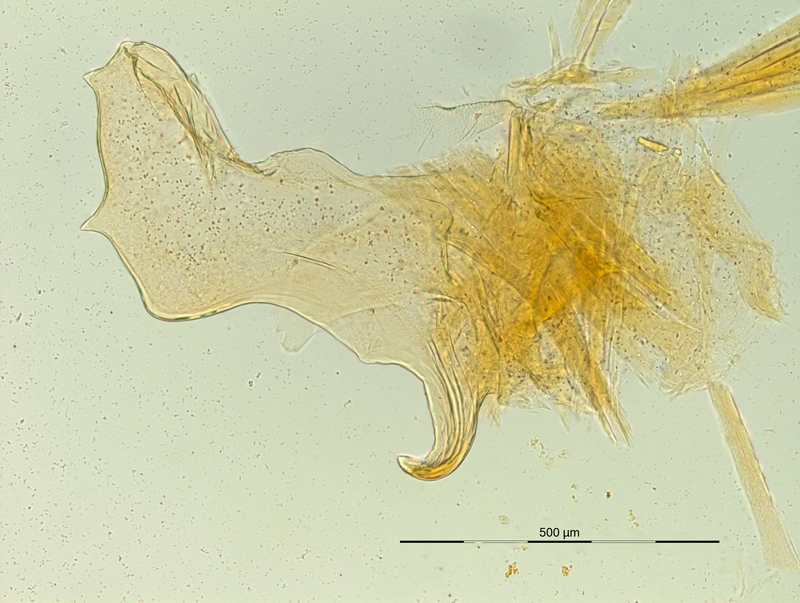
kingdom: Animalia
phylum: Arthropoda
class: Diplopoda
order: Chordeumatida
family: Craspedosomatidae
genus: Macheiriophoron
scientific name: Macheiriophoron wehranum
